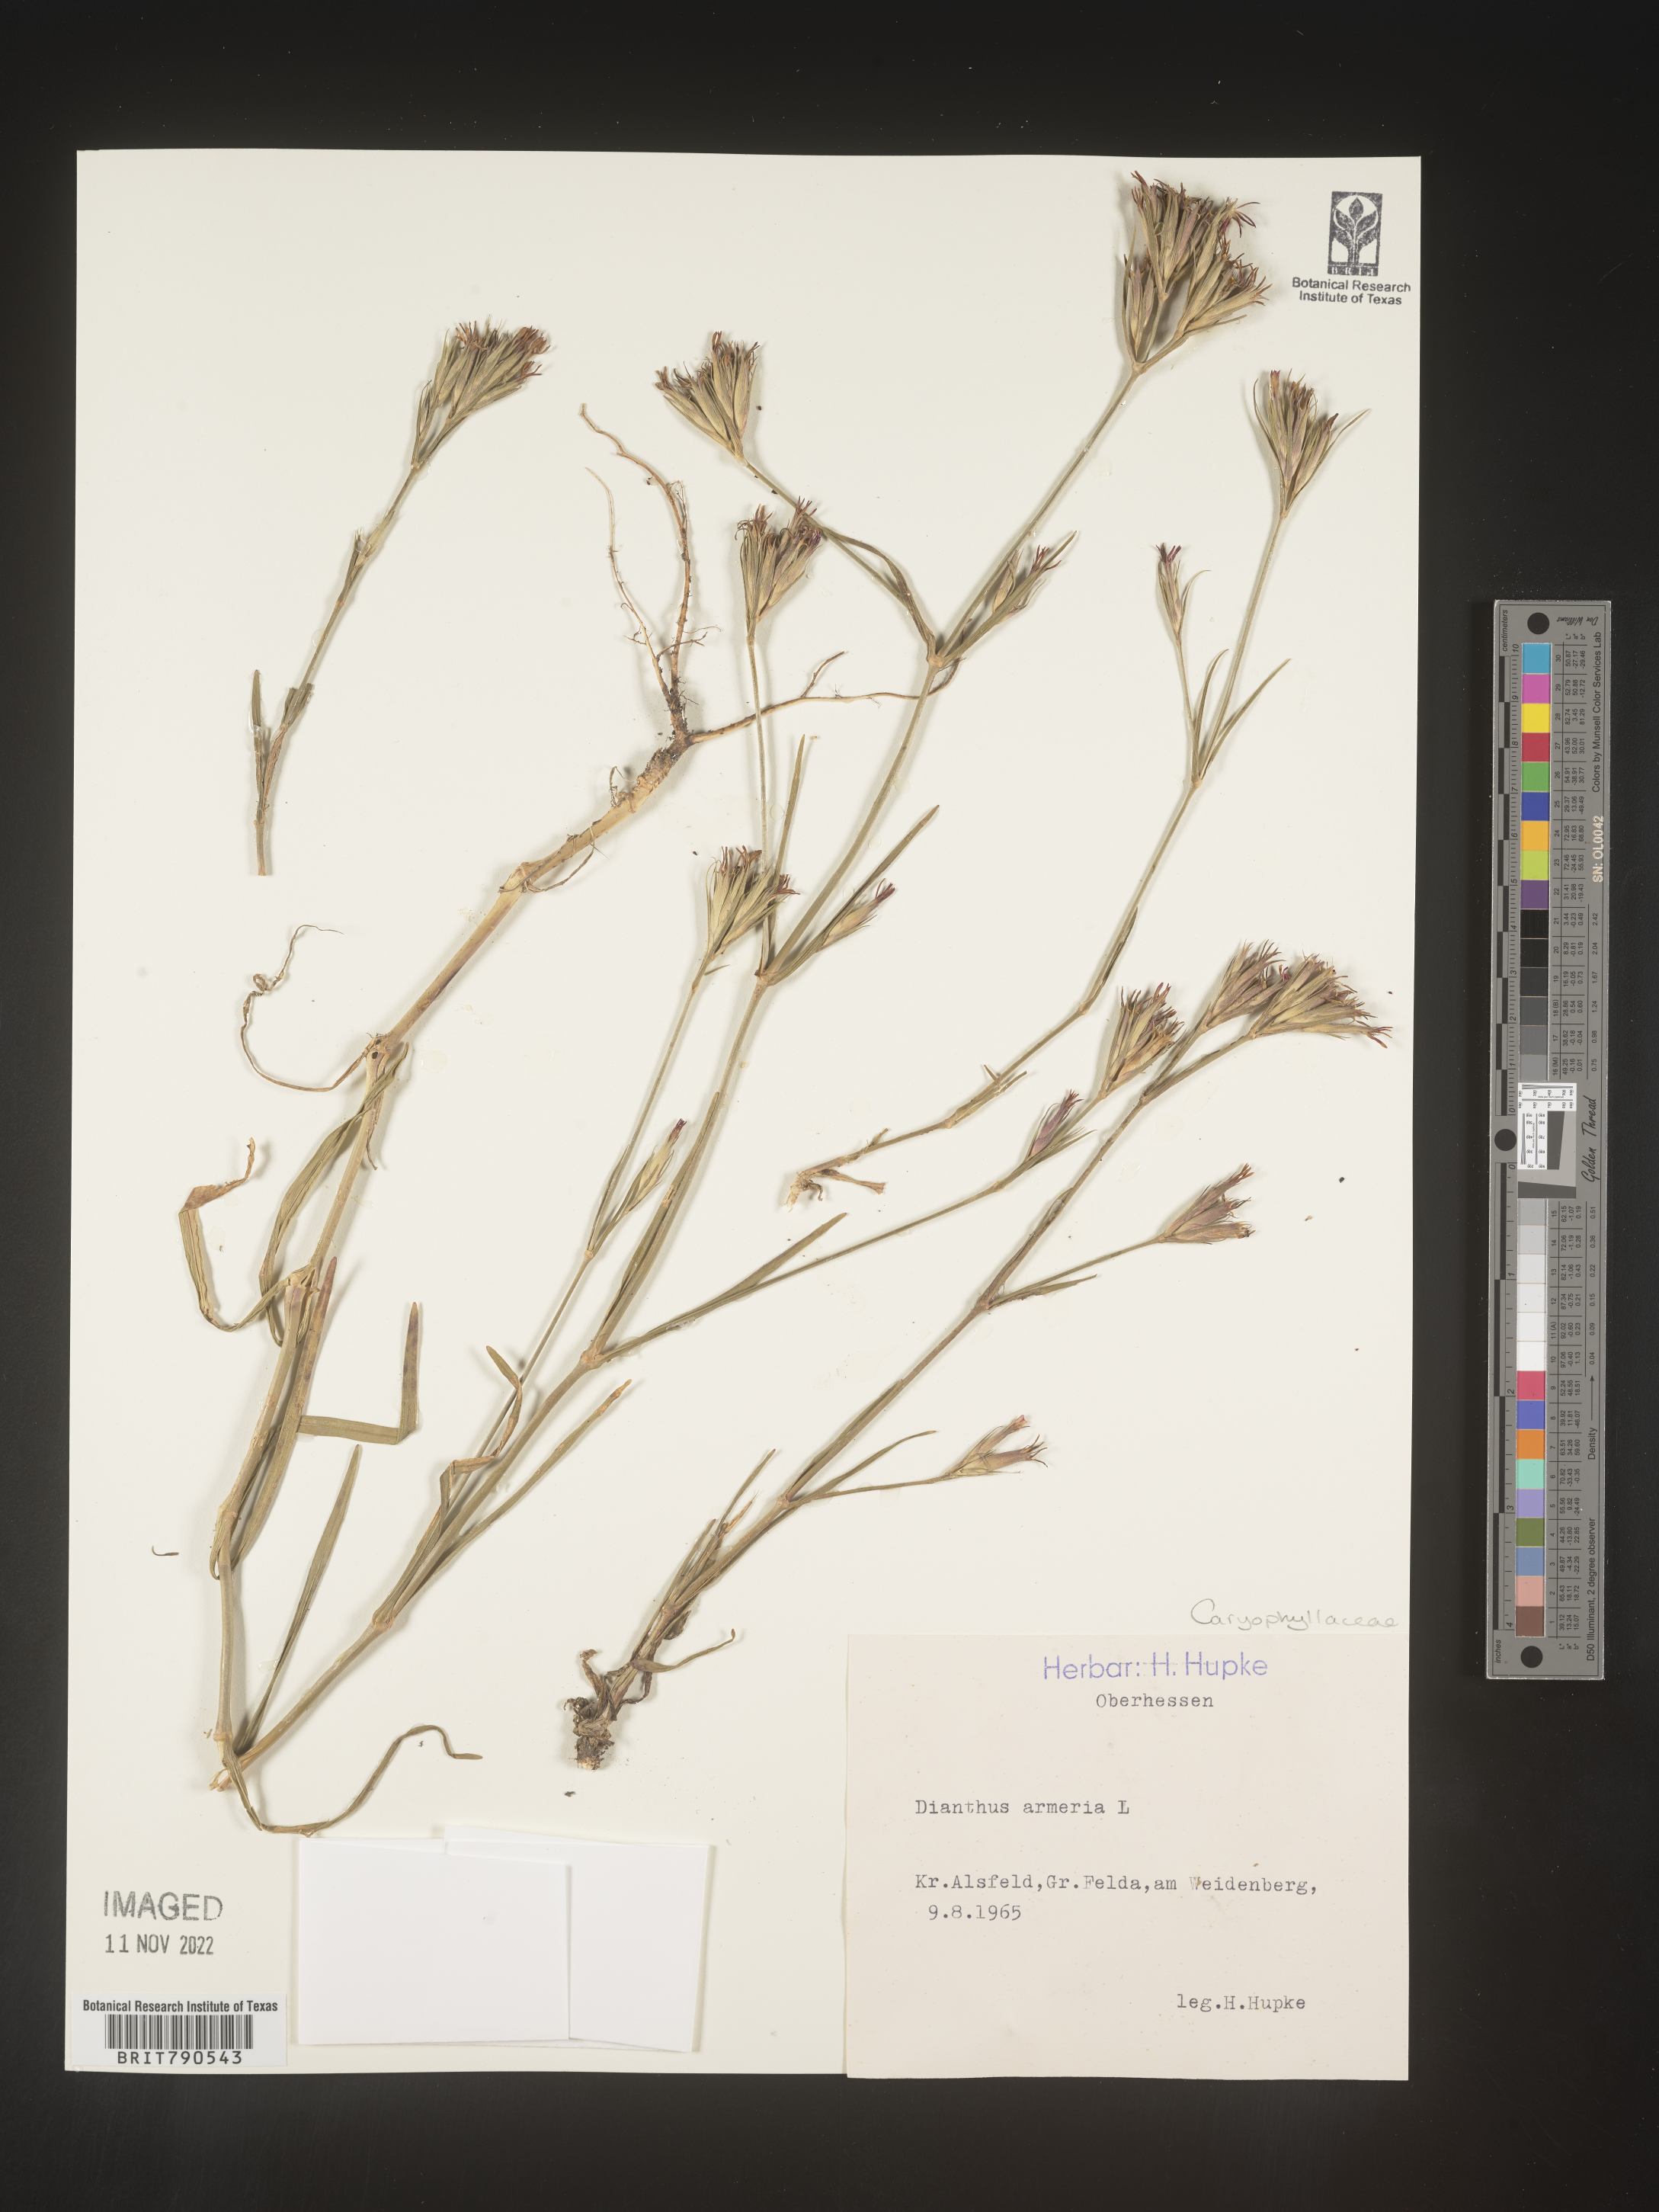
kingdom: Plantae
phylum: Tracheophyta
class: Magnoliopsida
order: Caryophyllales
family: Caryophyllaceae
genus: Dianthus
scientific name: Dianthus
